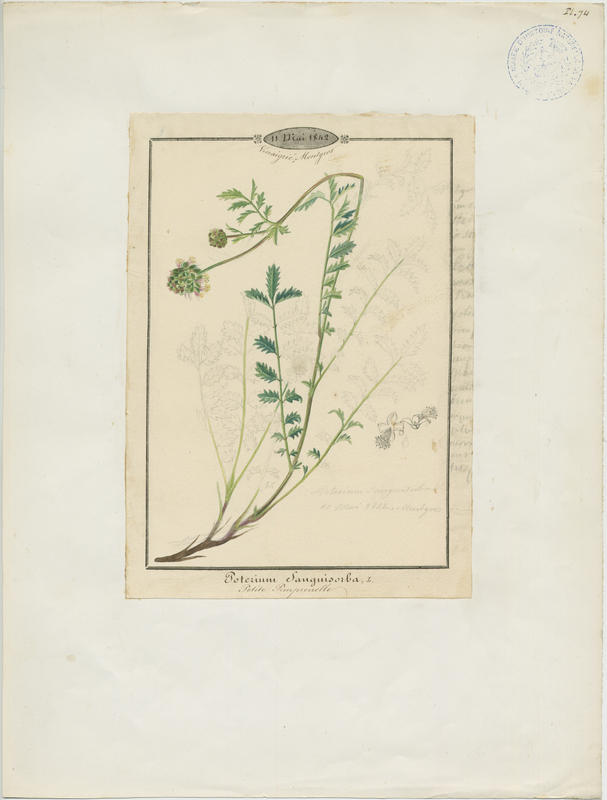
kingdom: Plantae
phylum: Tracheophyta
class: Magnoliopsida
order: Rosales
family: Rosaceae
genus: Poterium
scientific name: Poterium sanguisorba
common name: Salad burnet
